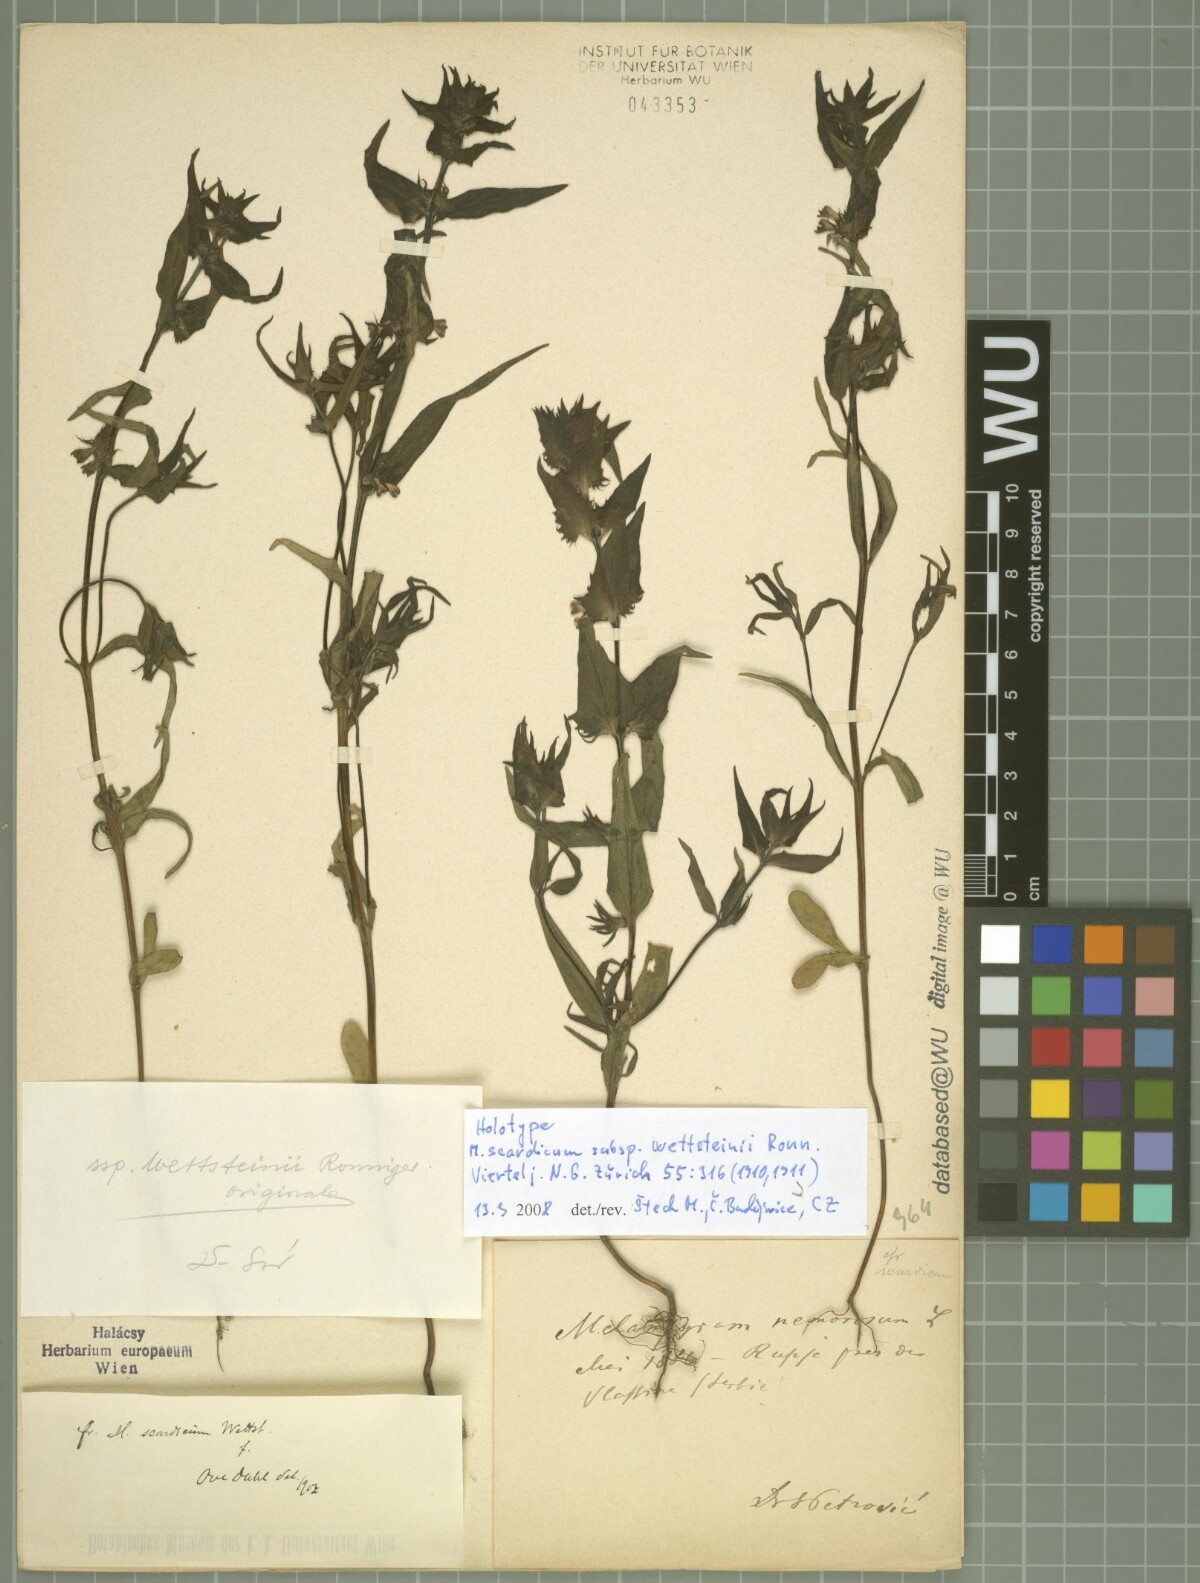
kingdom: Plantae
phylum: Tracheophyta
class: Magnoliopsida
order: Lamiales
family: Orobanchaceae
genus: Melampyrum
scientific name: Melampyrum scardicum
